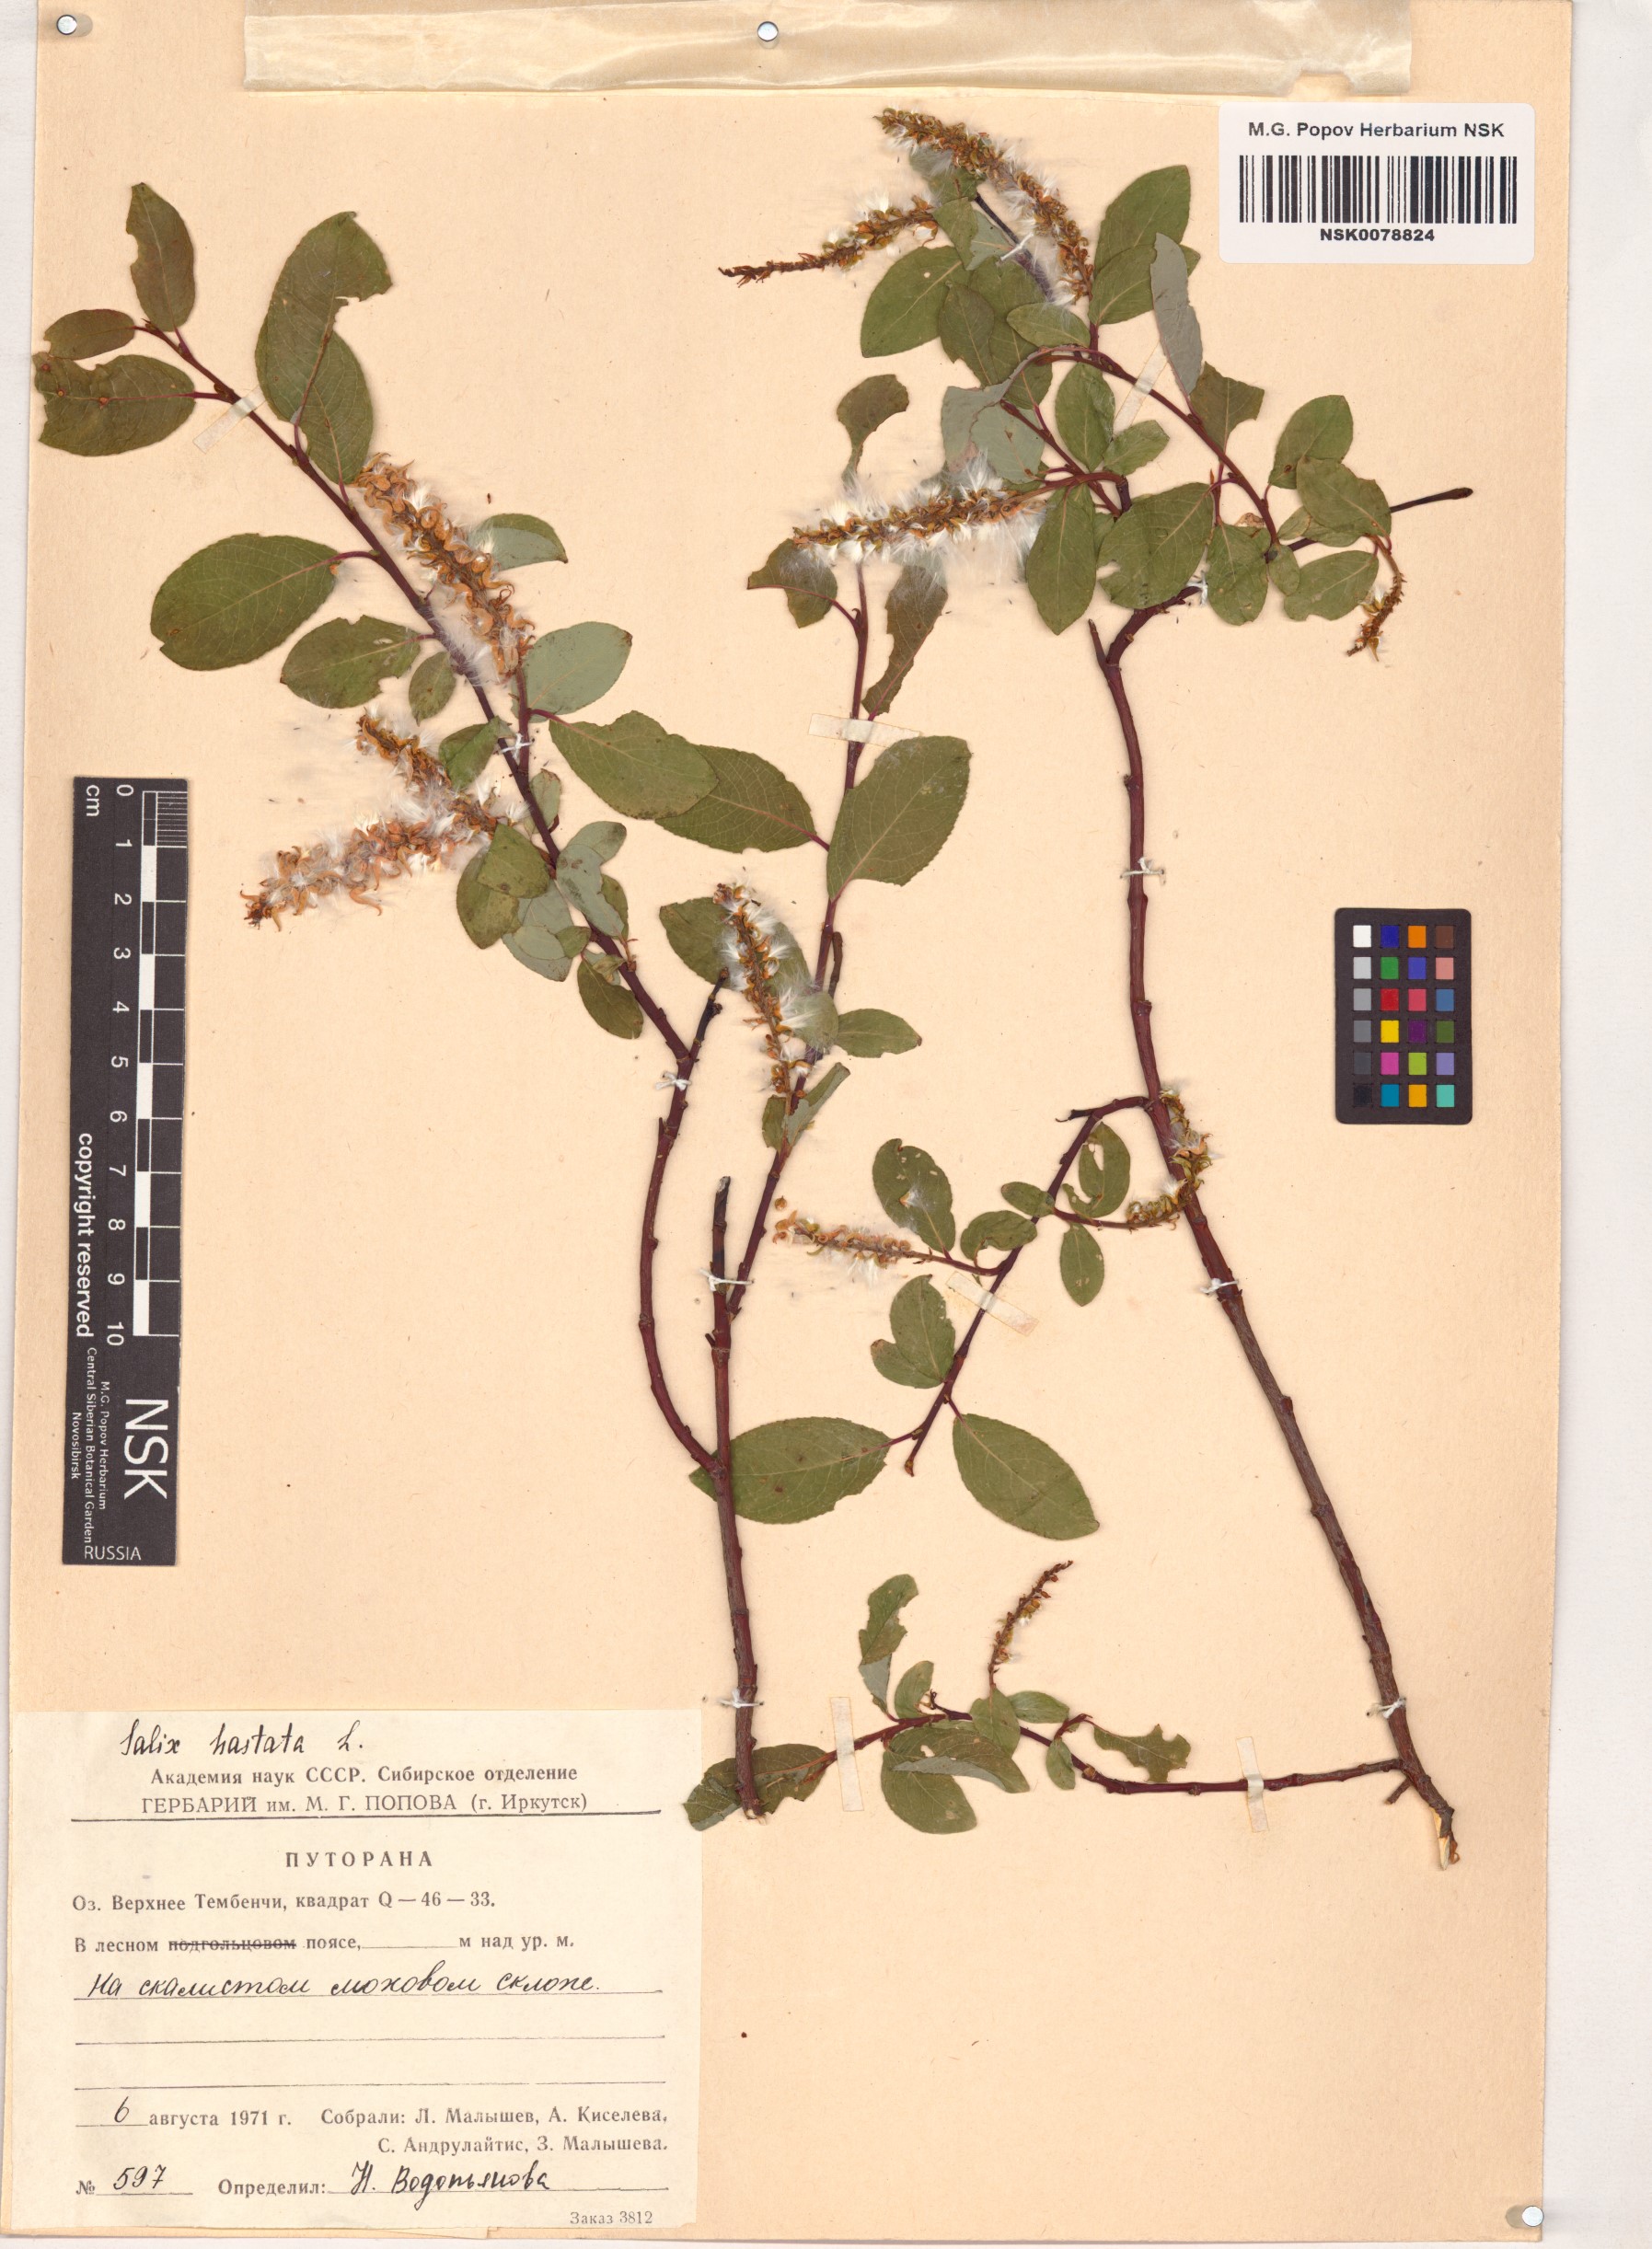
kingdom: Plantae
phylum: Tracheophyta
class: Magnoliopsida
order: Malpighiales
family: Salicaceae
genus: Salix
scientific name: Salix hastata
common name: Halberd willow
